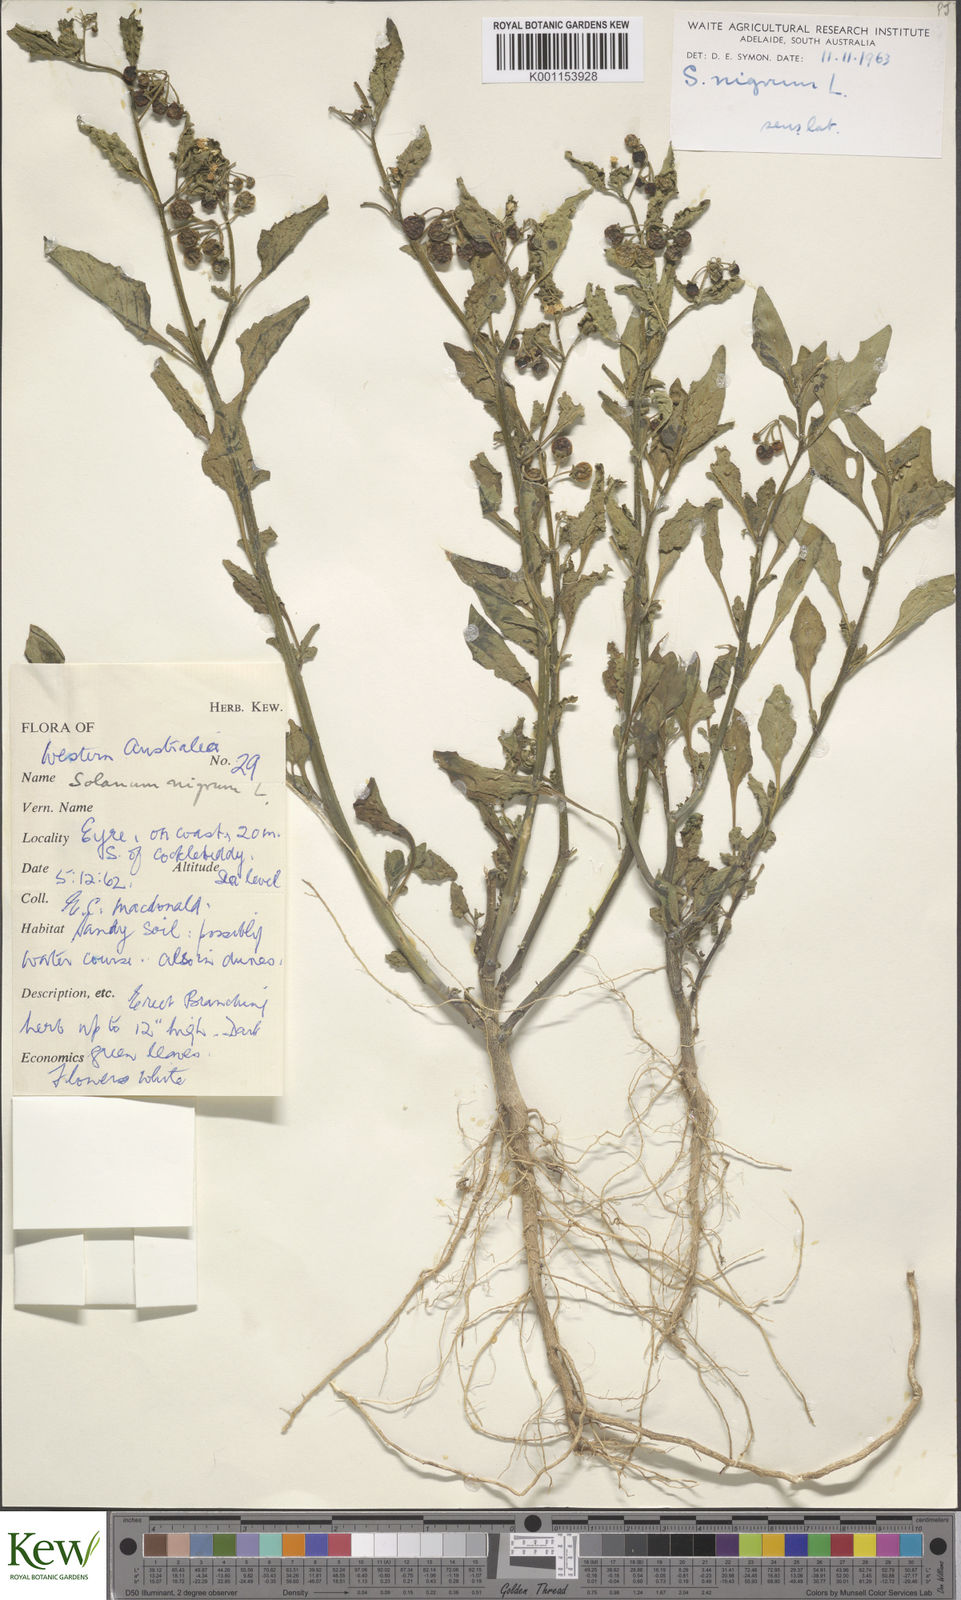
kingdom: Plantae
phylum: Tracheophyta
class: Magnoliopsida
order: Solanales
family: Solanaceae
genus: Solanum
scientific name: Solanum nigrum
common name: Black nightshade
